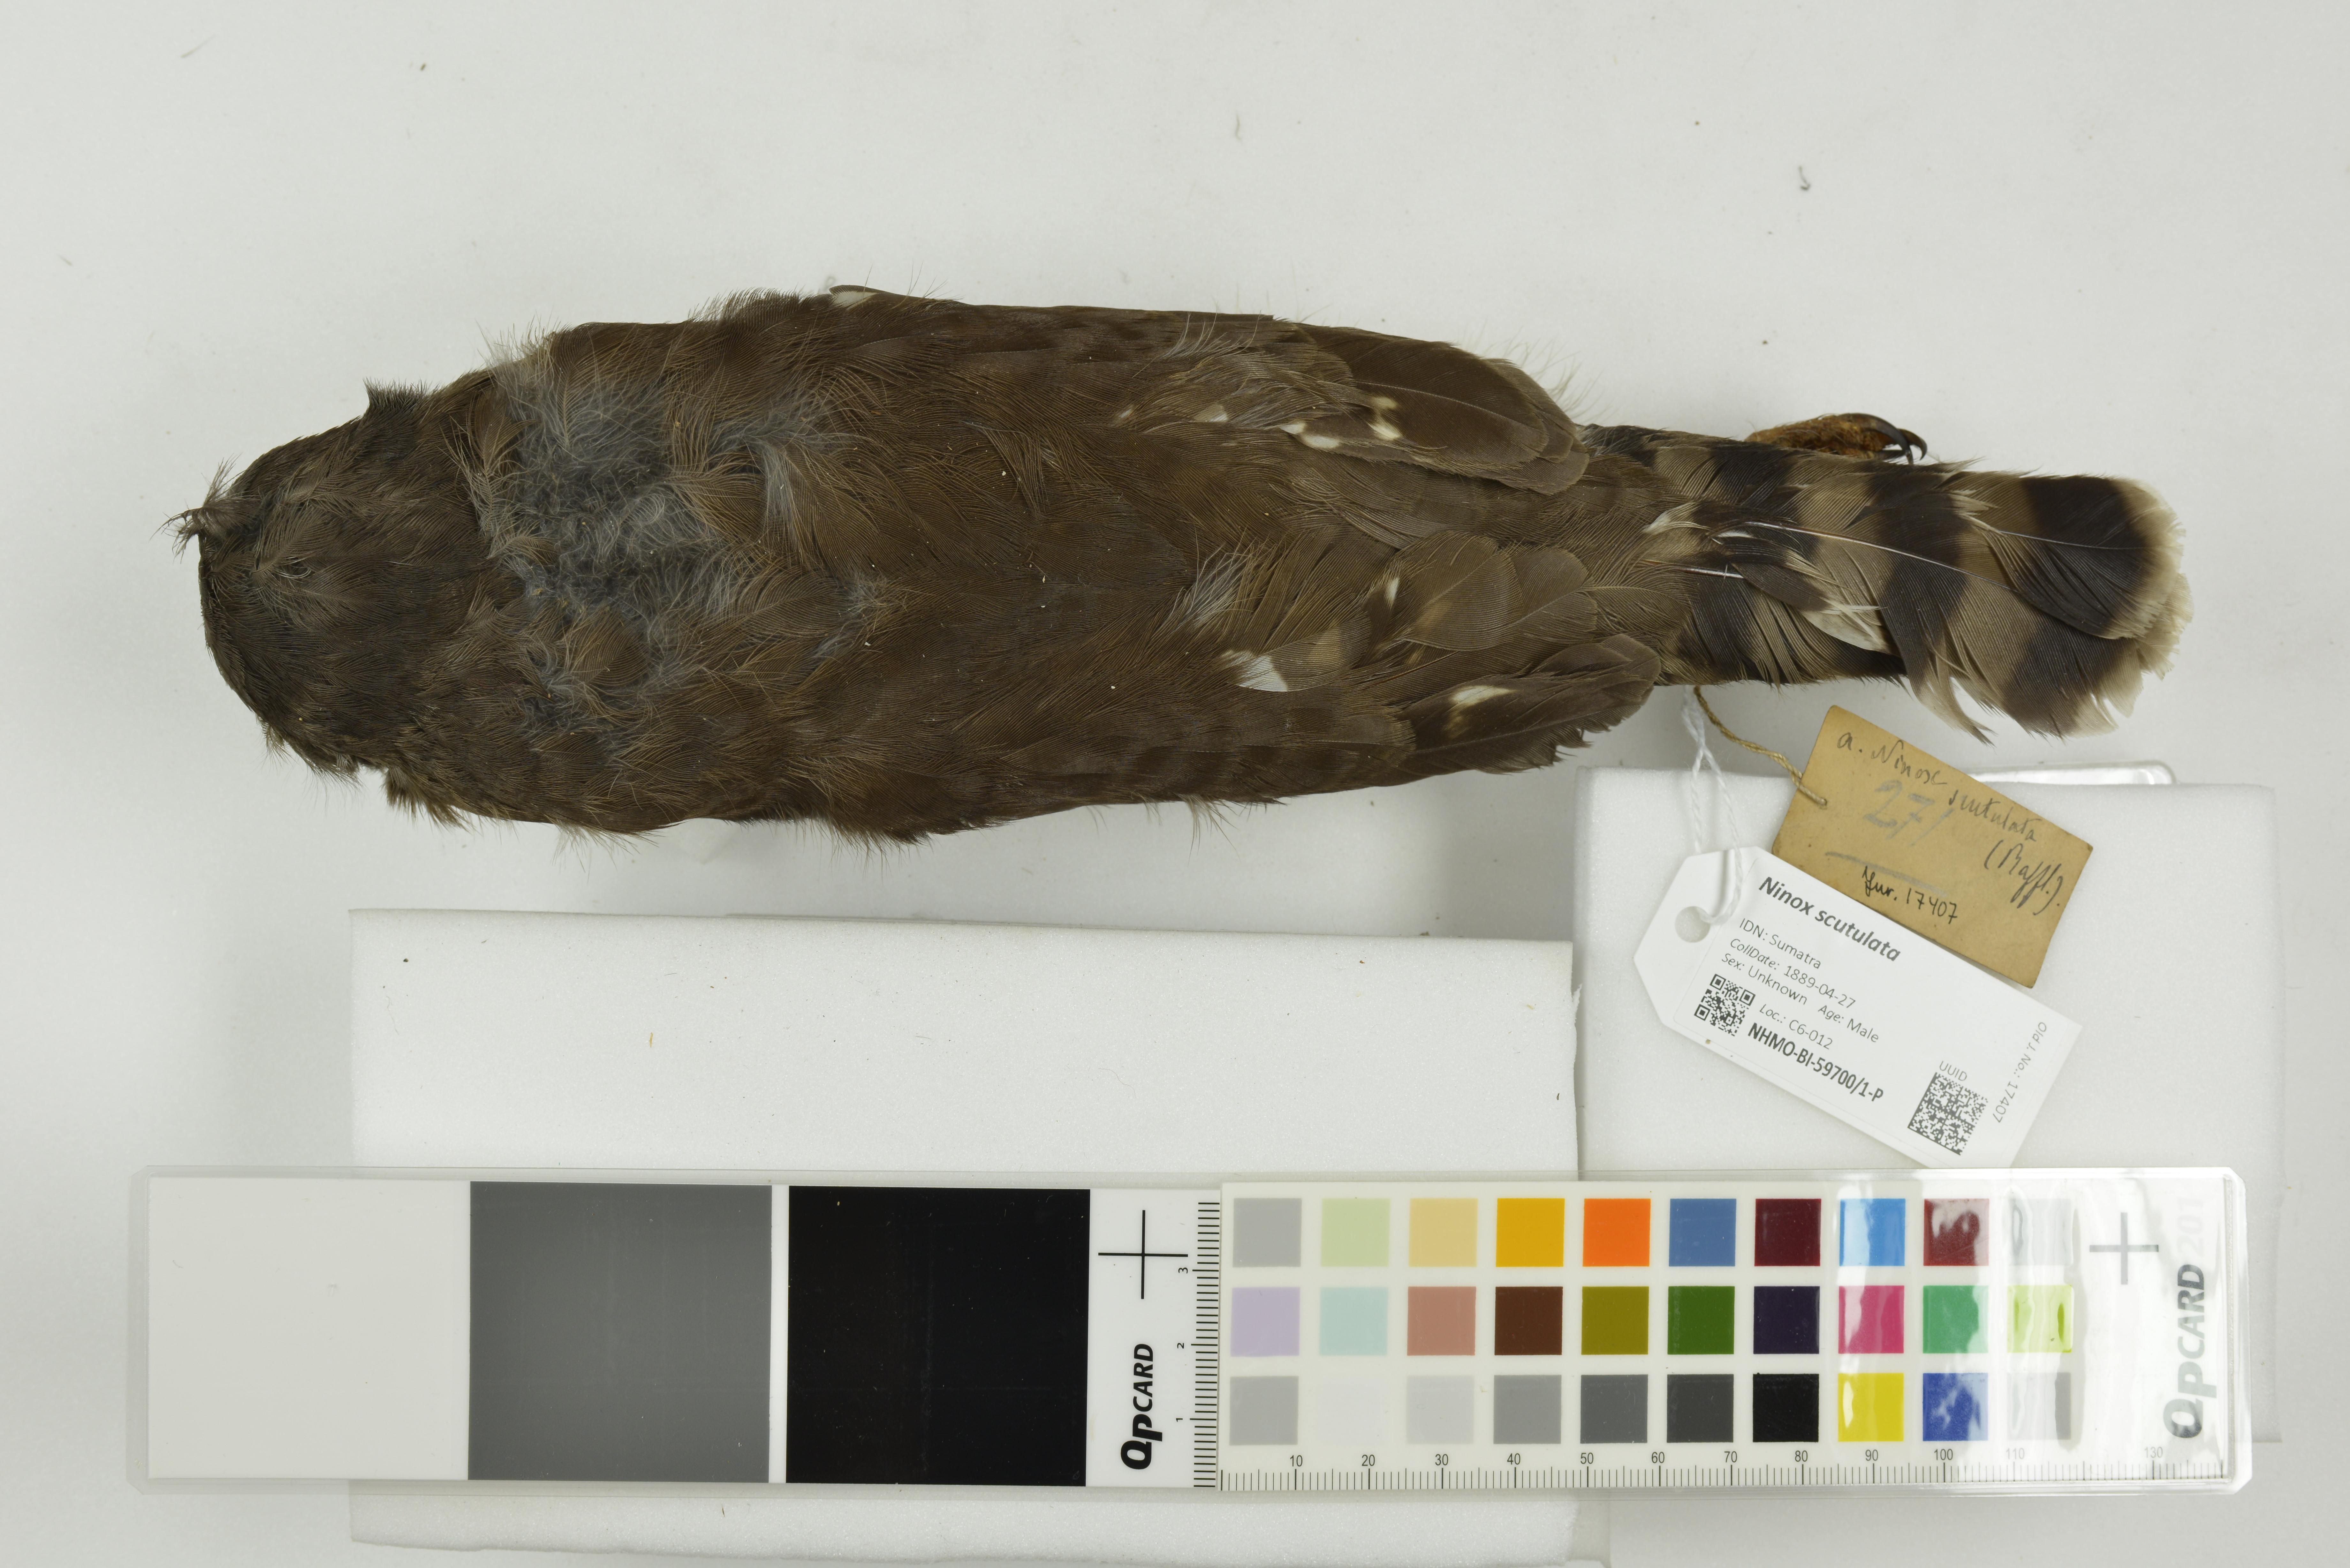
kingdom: Animalia
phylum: Chordata
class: Aves
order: Strigiformes
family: Strigidae
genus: Ninox
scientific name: Ninox scutulata
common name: Brown hawk-owl
